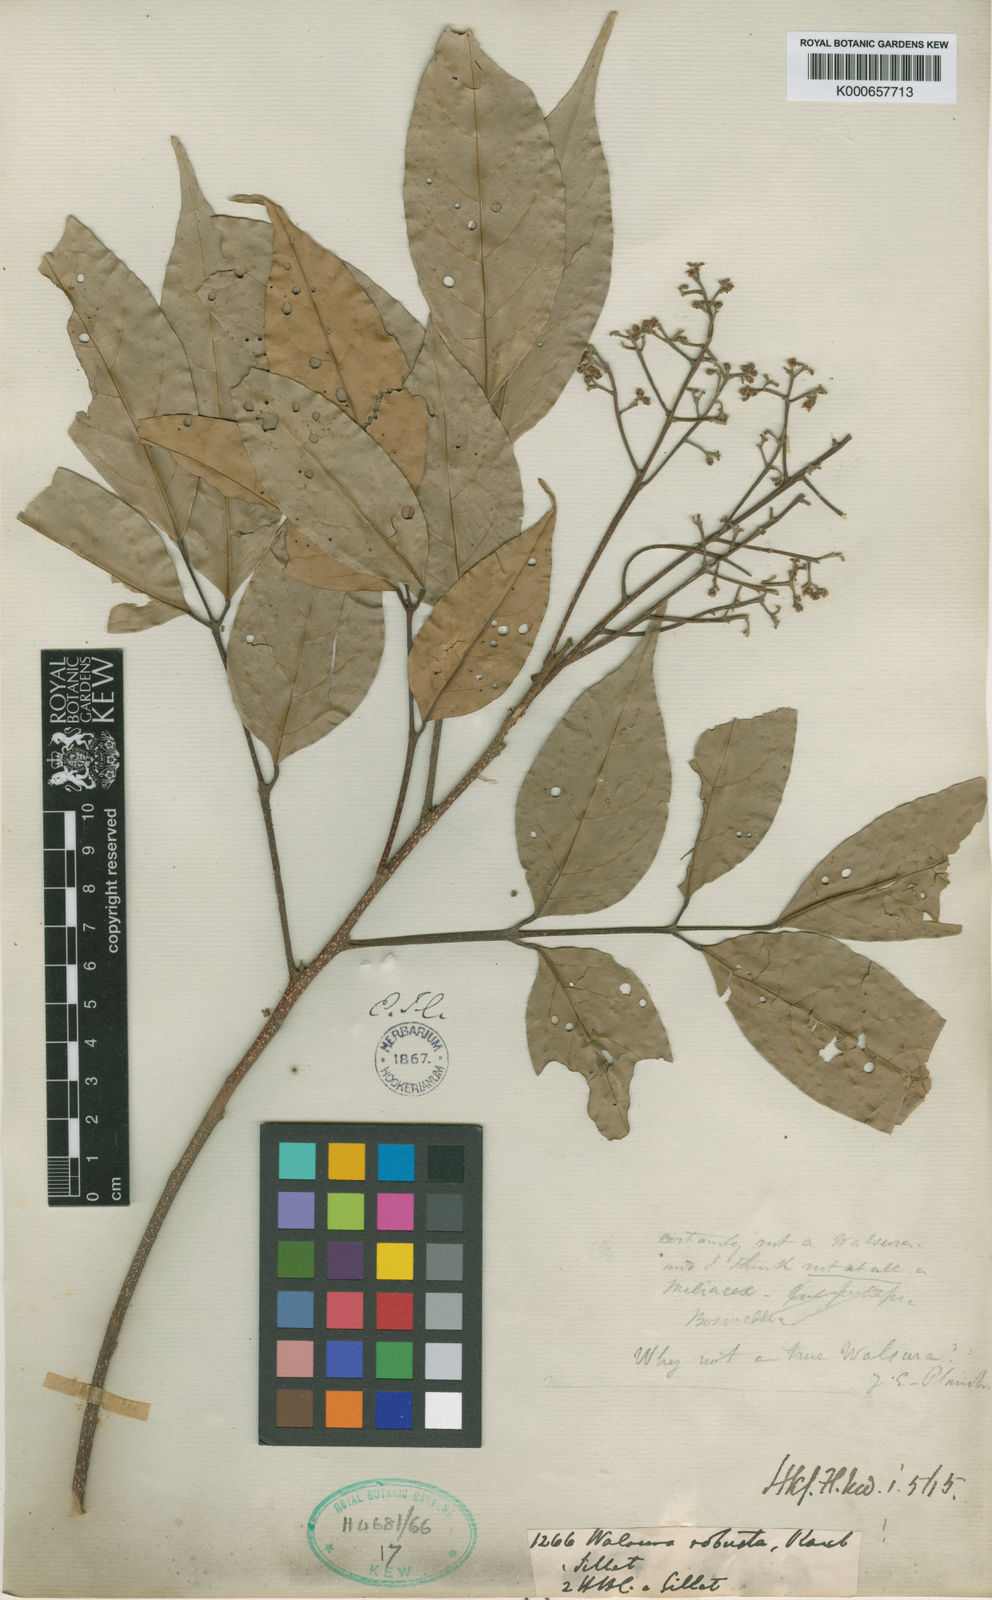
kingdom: Plantae
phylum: Tracheophyta
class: Magnoliopsida
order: Sapindales
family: Meliaceae
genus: Walsura
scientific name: Walsura robusta
